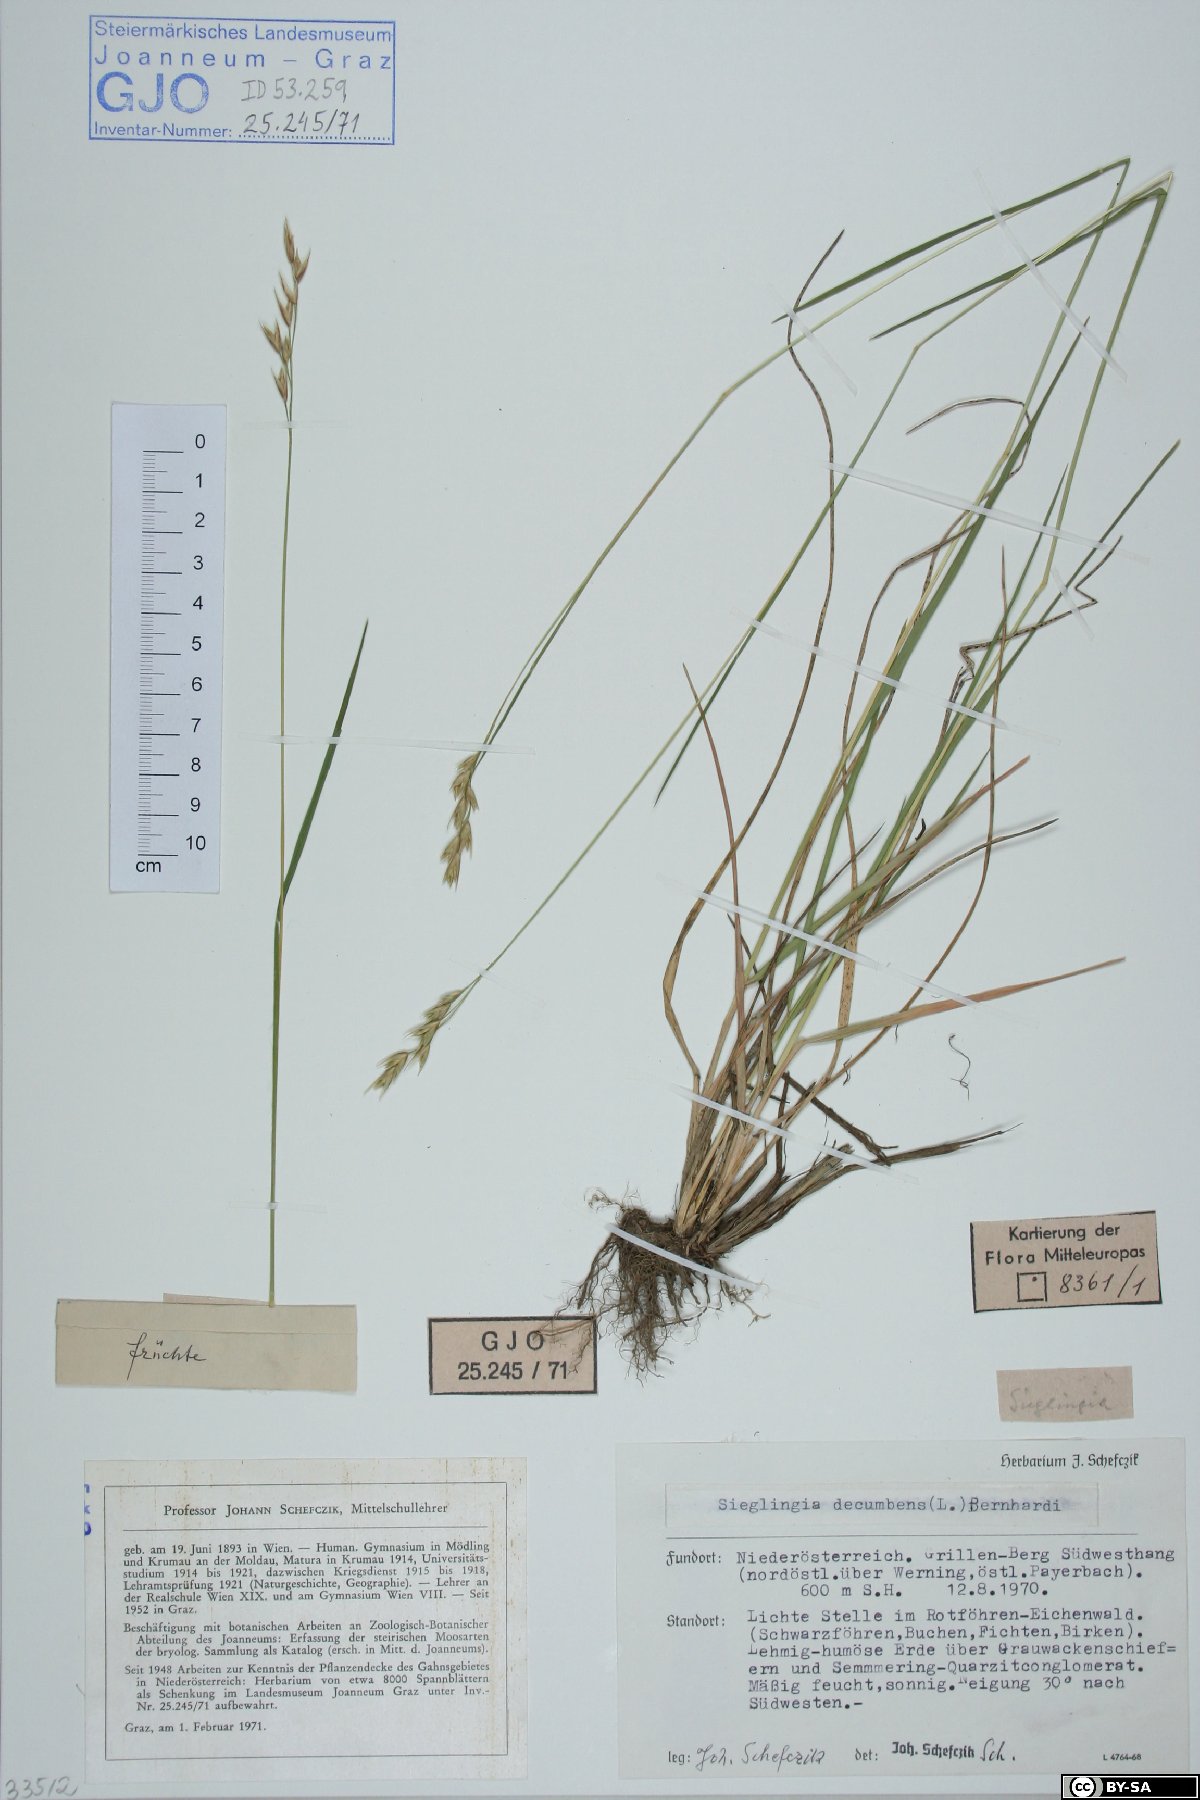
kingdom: Plantae
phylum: Tracheophyta
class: Liliopsida
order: Poales
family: Poaceae
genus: Danthonia
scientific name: Danthonia decumbens
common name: Common heathgrass
